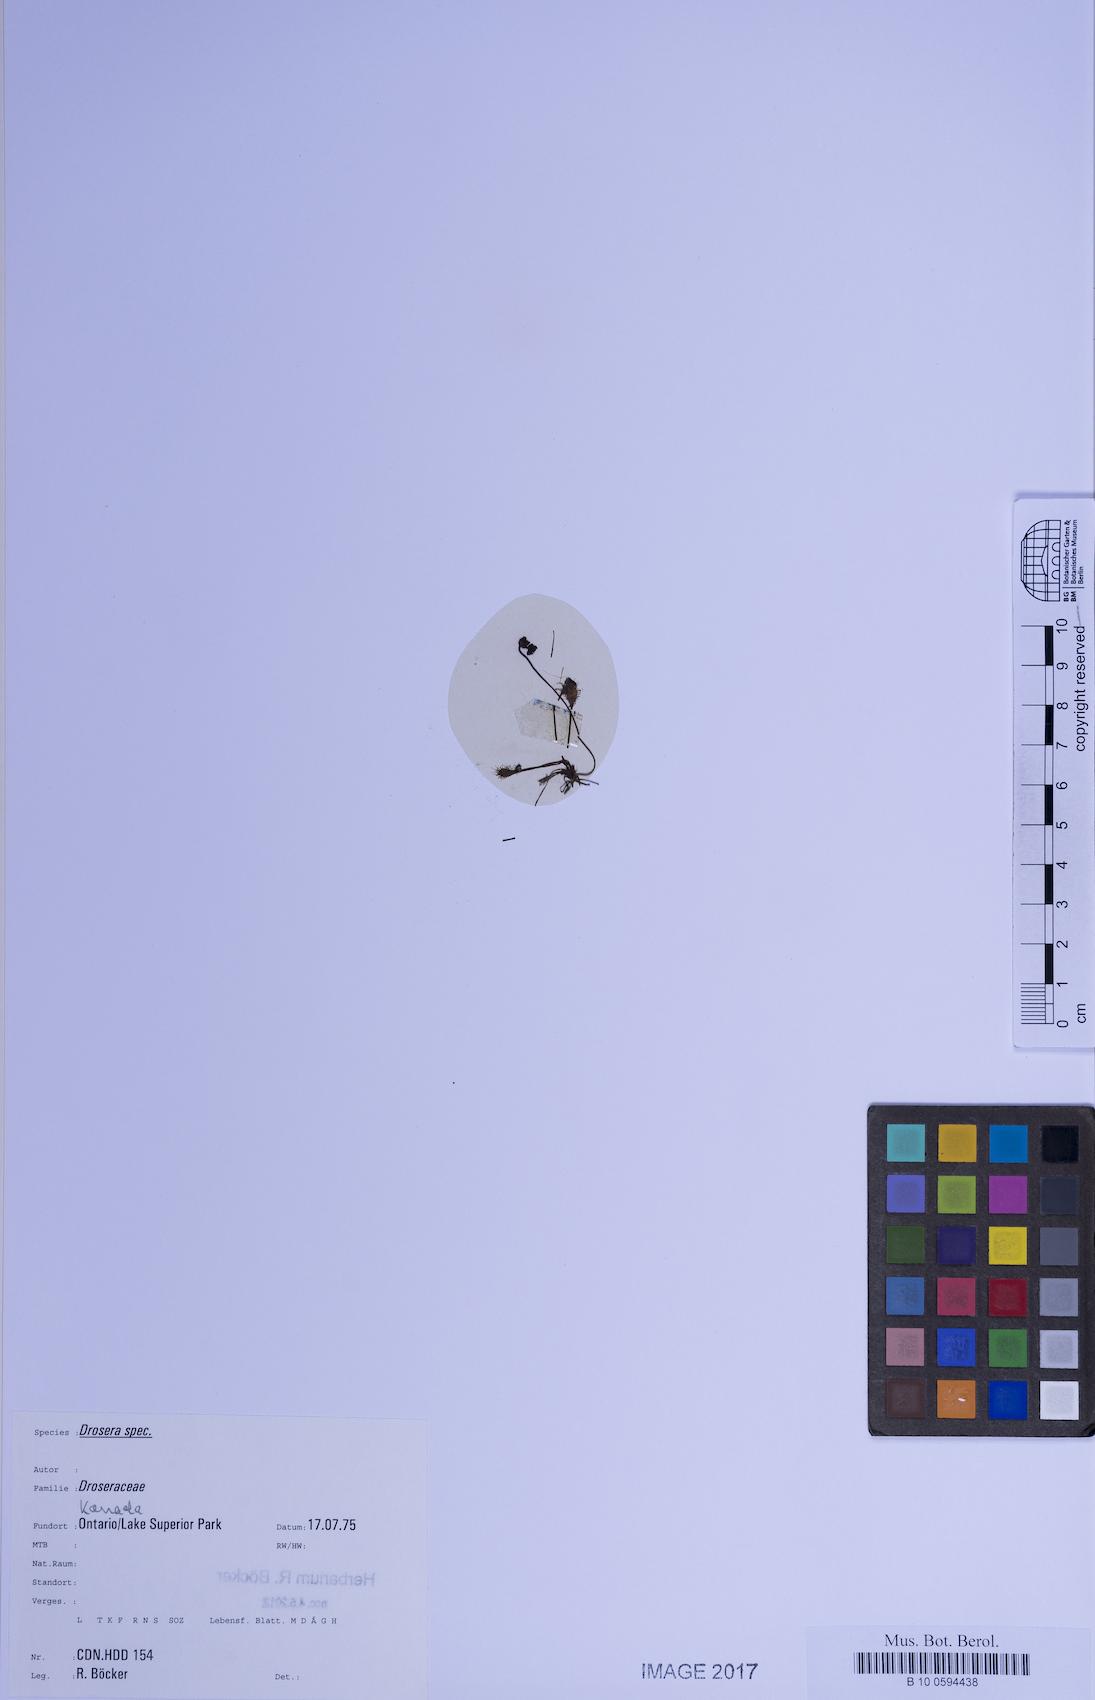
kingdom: Plantae
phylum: Tracheophyta
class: Magnoliopsida
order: Caryophyllales
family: Droseraceae
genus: Drosera
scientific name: Drosera
